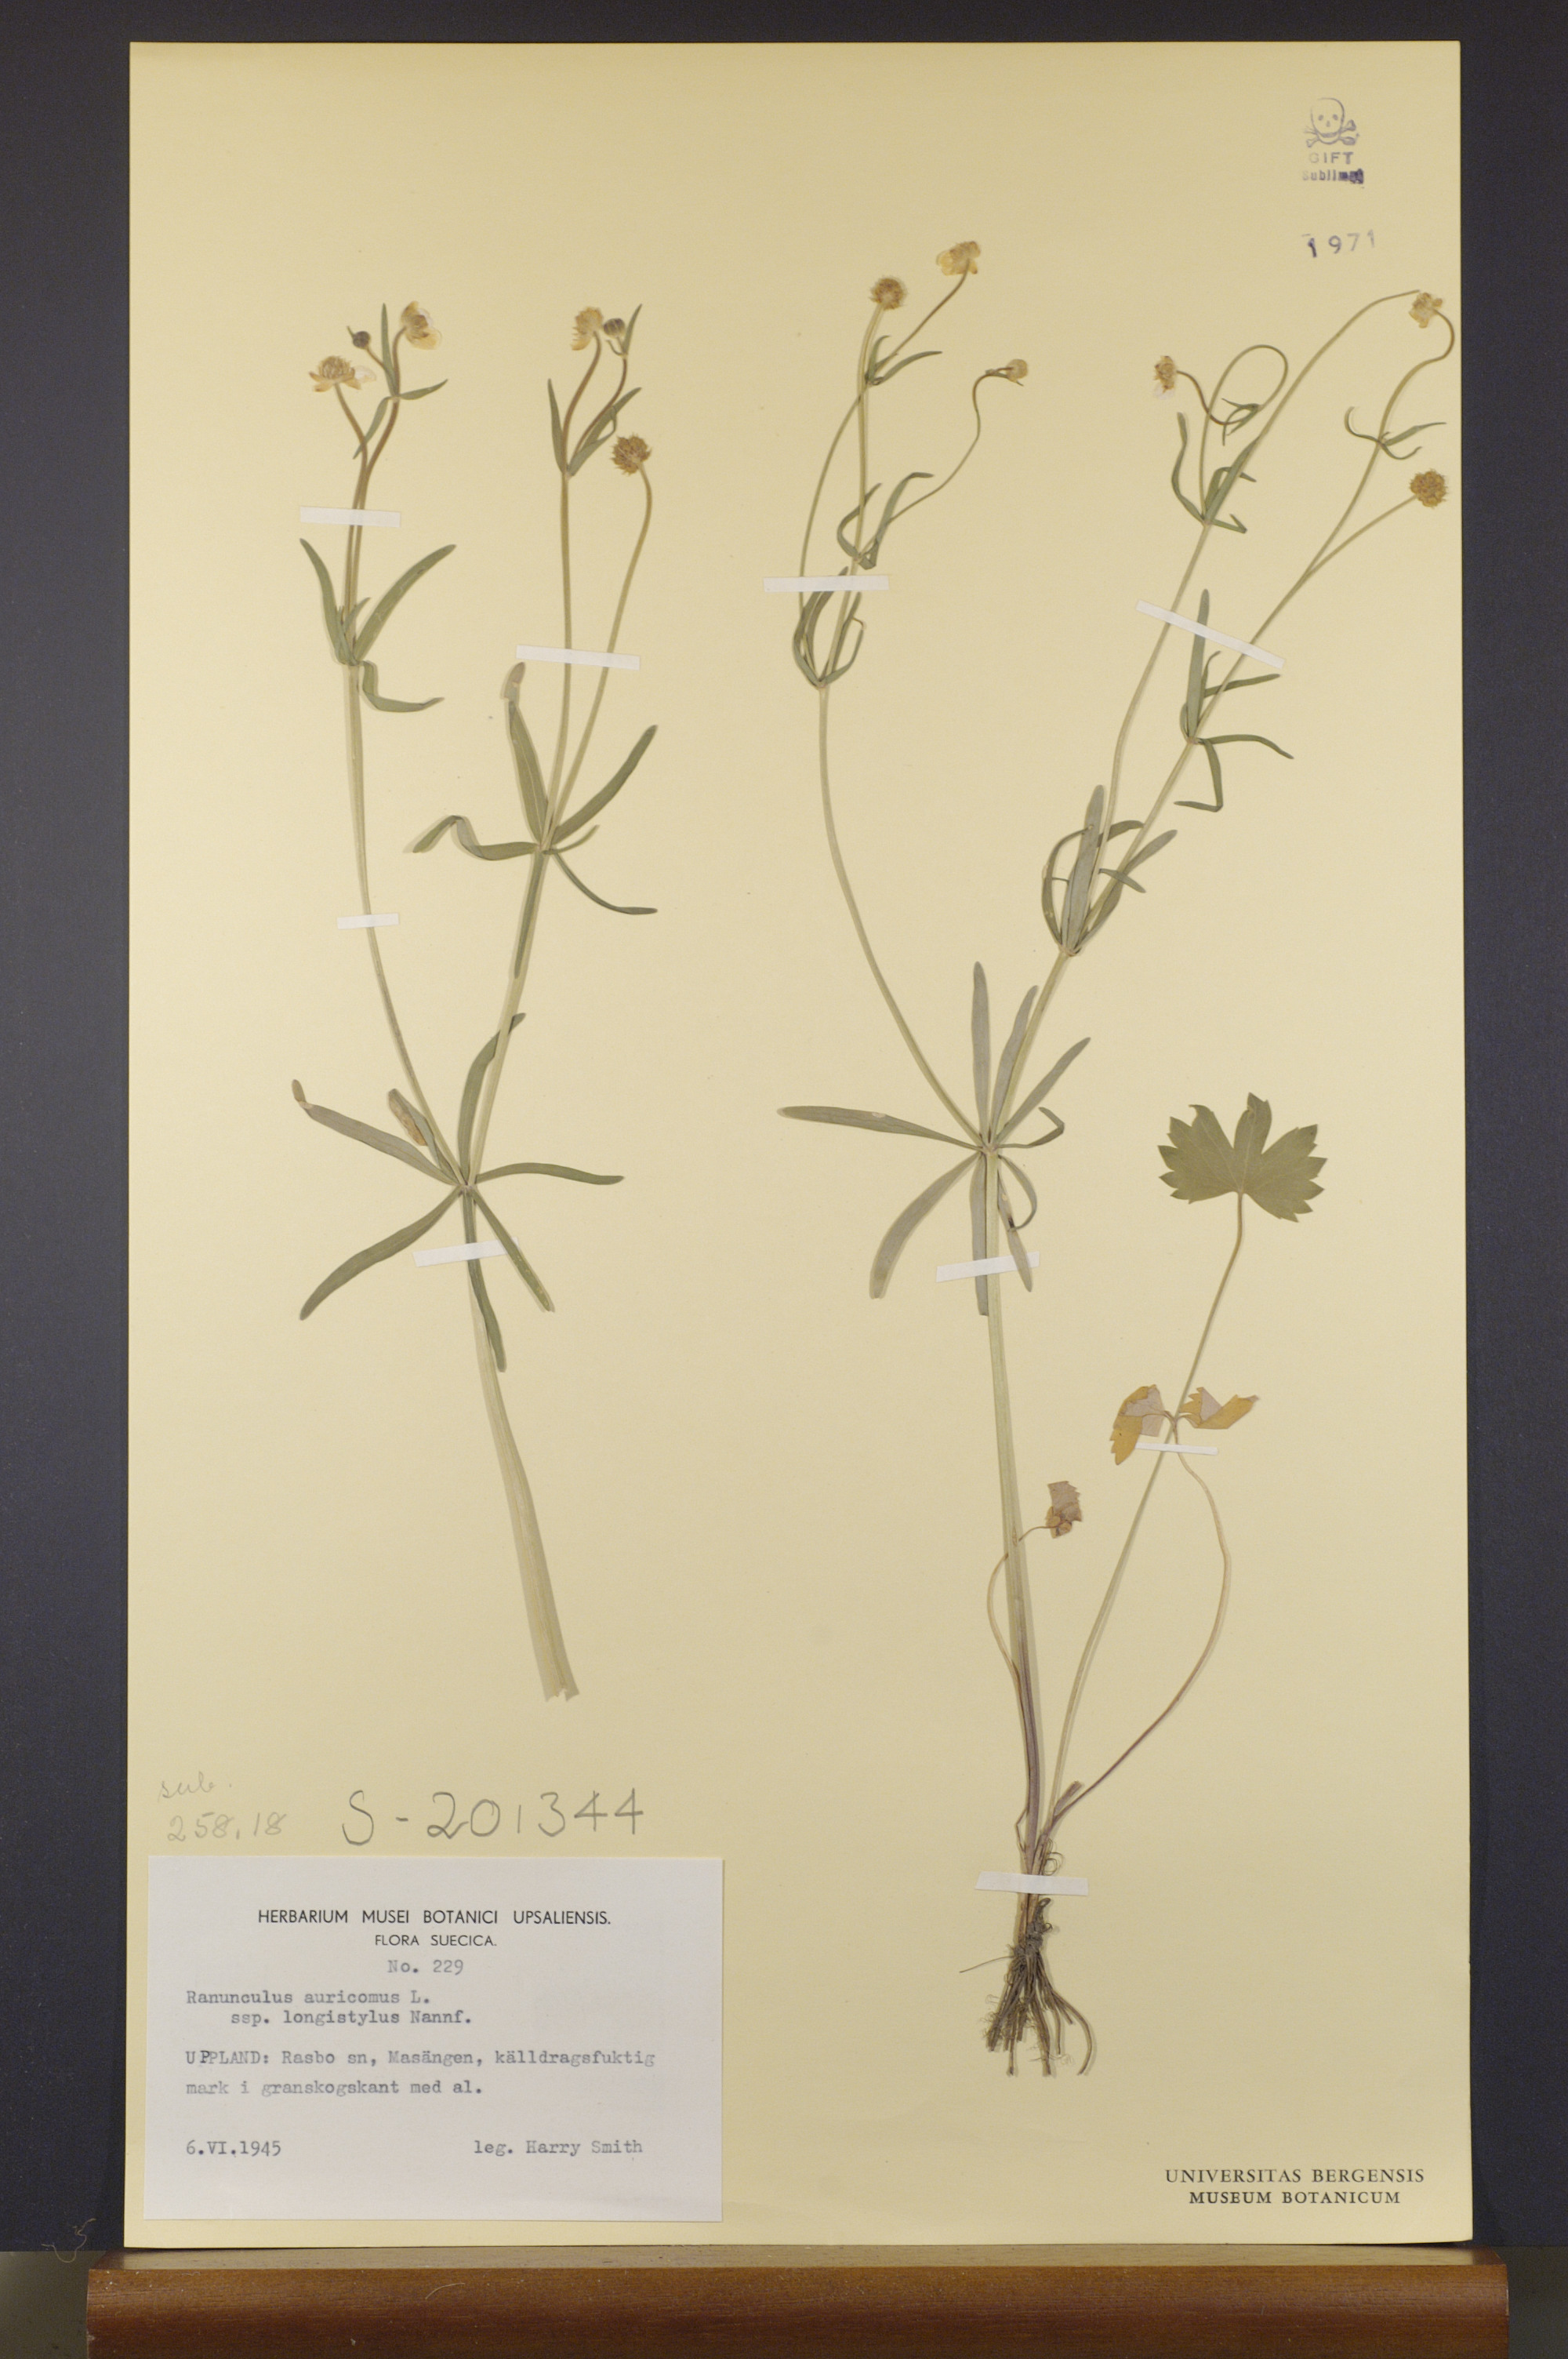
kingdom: Plantae
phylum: Tracheophyta
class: Magnoliopsida
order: Ranunculales
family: Ranunculaceae
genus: Ranunculus
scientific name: Ranunculus longistylus
